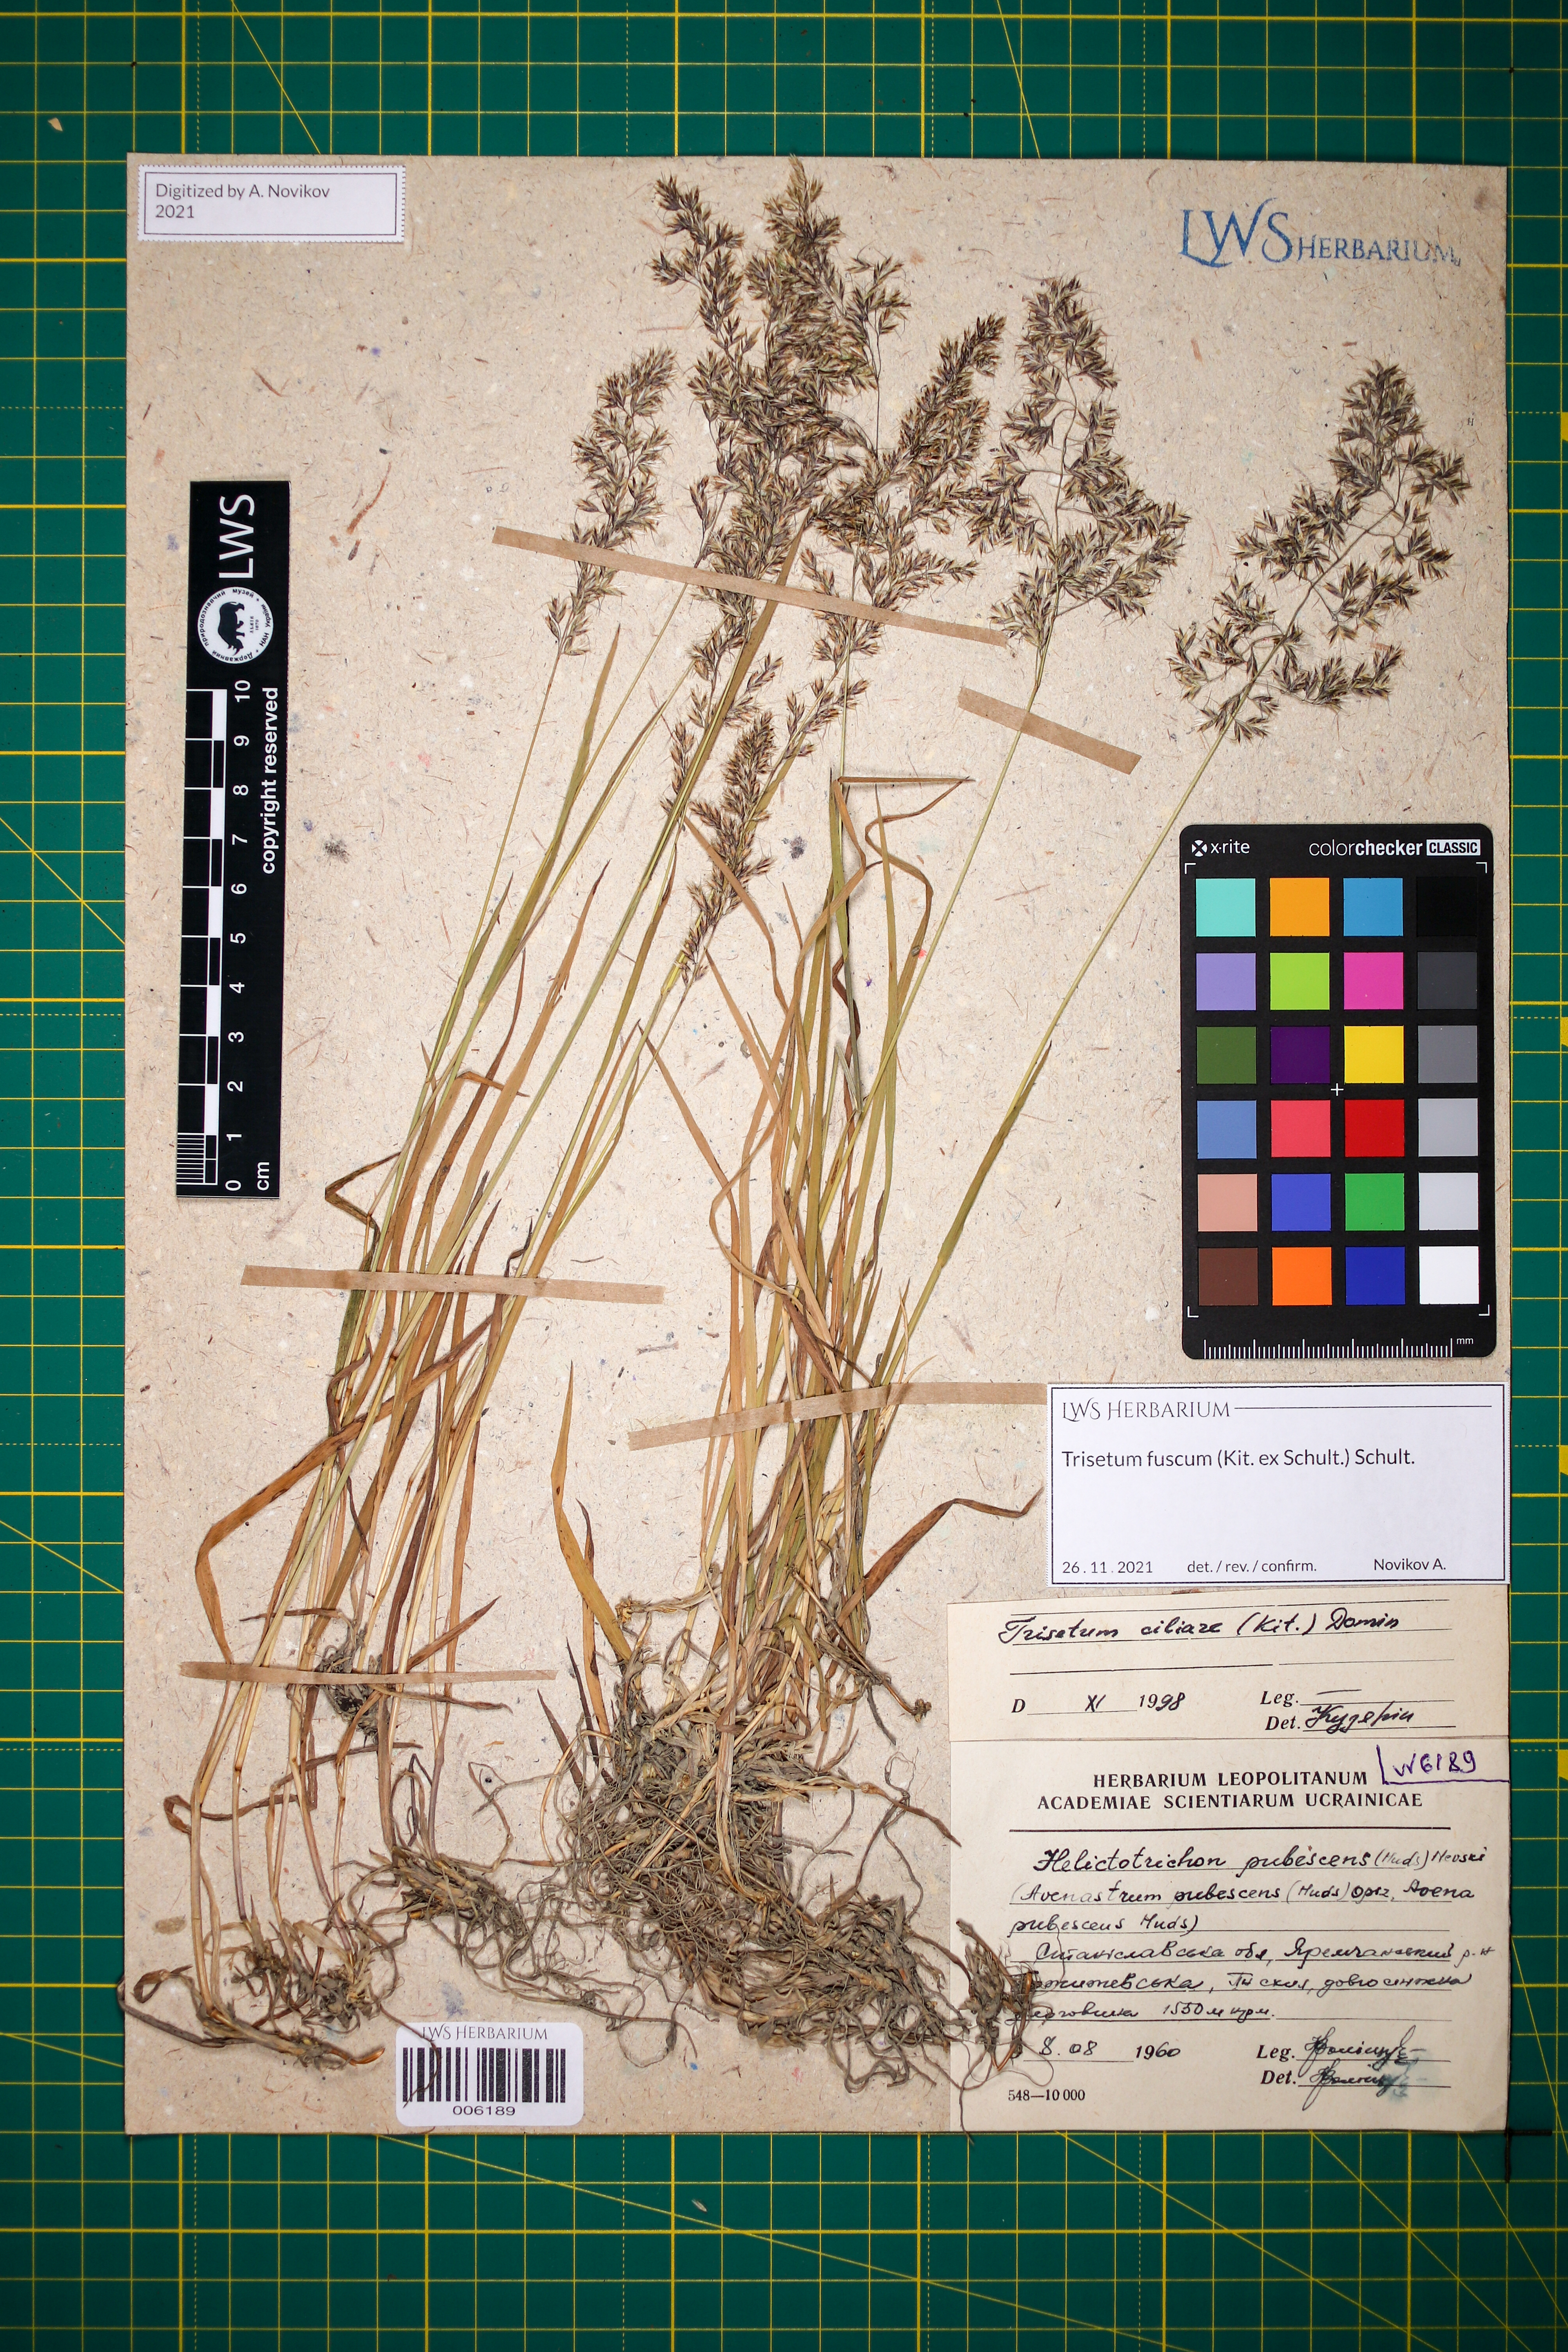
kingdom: Plantae
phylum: Tracheophyta
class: Liliopsida
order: Poales
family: Poaceae
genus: Trisetum
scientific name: Trisetum fuscum
